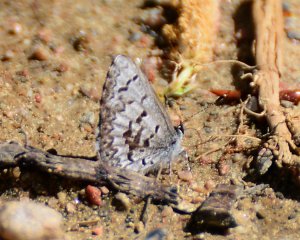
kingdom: Animalia
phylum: Arthropoda
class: Insecta
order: Lepidoptera
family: Lycaenidae
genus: Celastrina
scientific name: Celastrina lucia
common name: Northern Spring Azure
